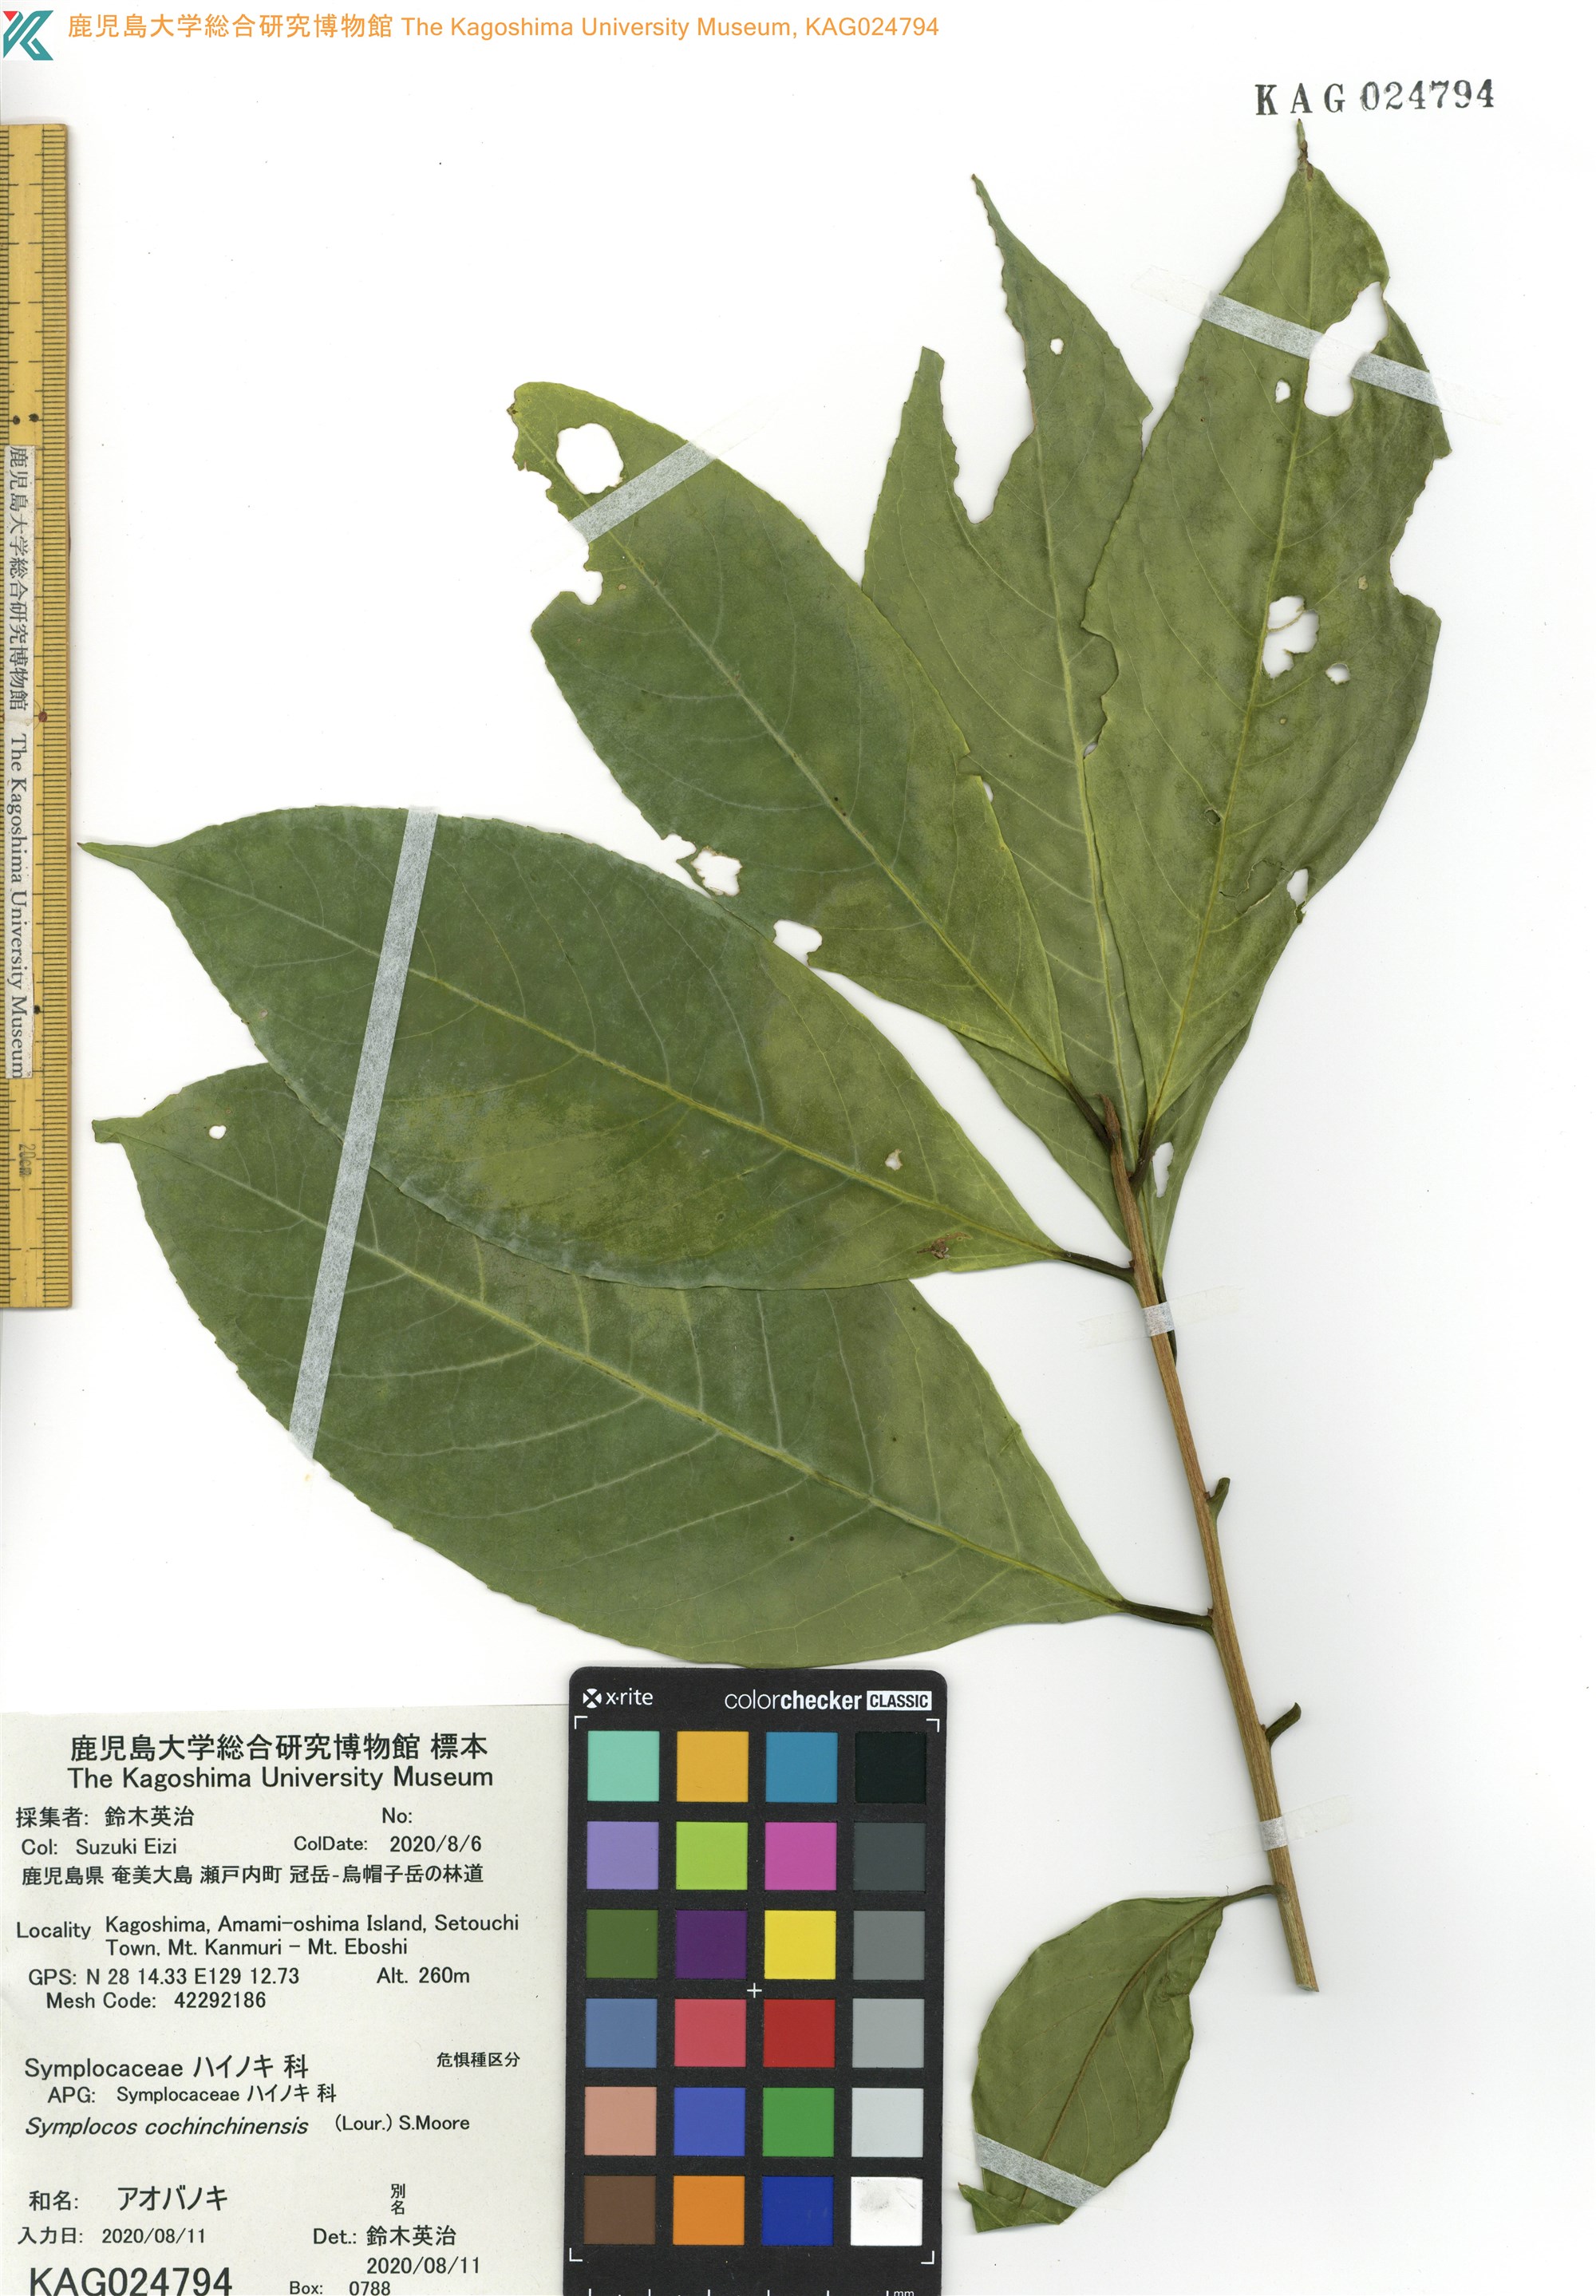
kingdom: Plantae
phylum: Tracheophyta
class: Magnoliopsida
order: Ericales
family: Symplocaceae
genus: Symplocos
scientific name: Symplocos cochinchinensis
